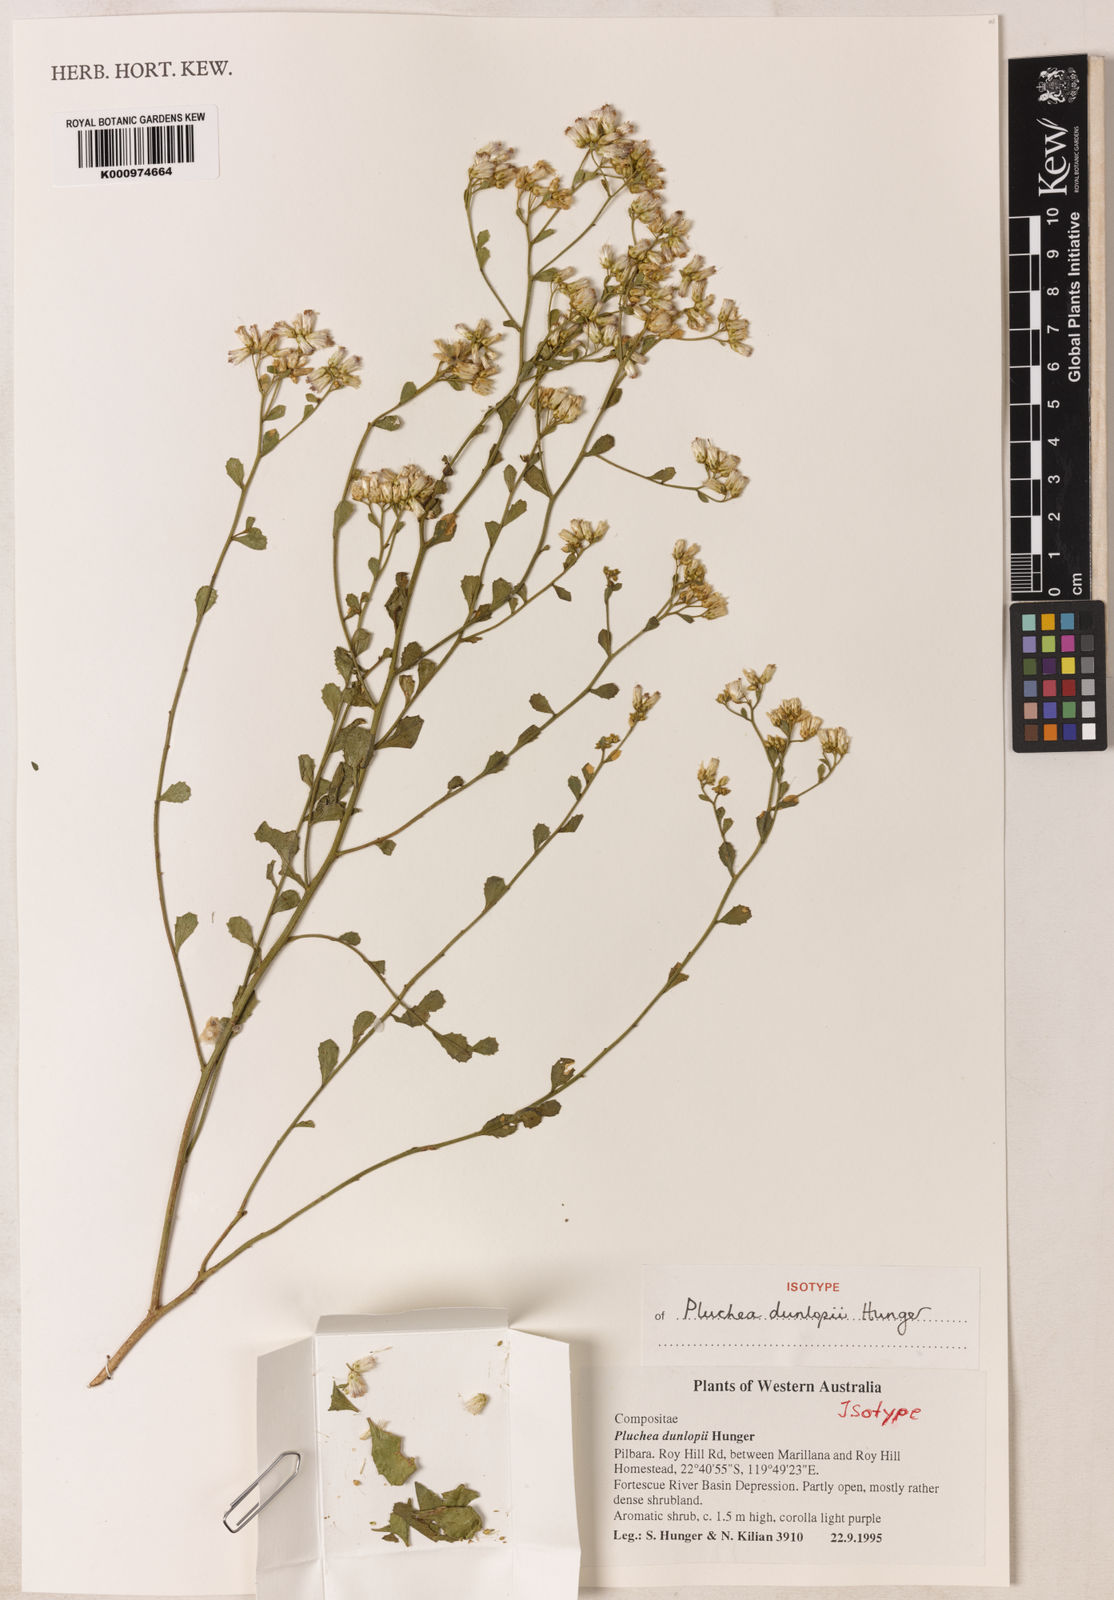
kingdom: Plantae
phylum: Tracheophyta
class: Magnoliopsida
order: Asterales
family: Asteraceae
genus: Pluchea
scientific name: Pluchea dunlopii
